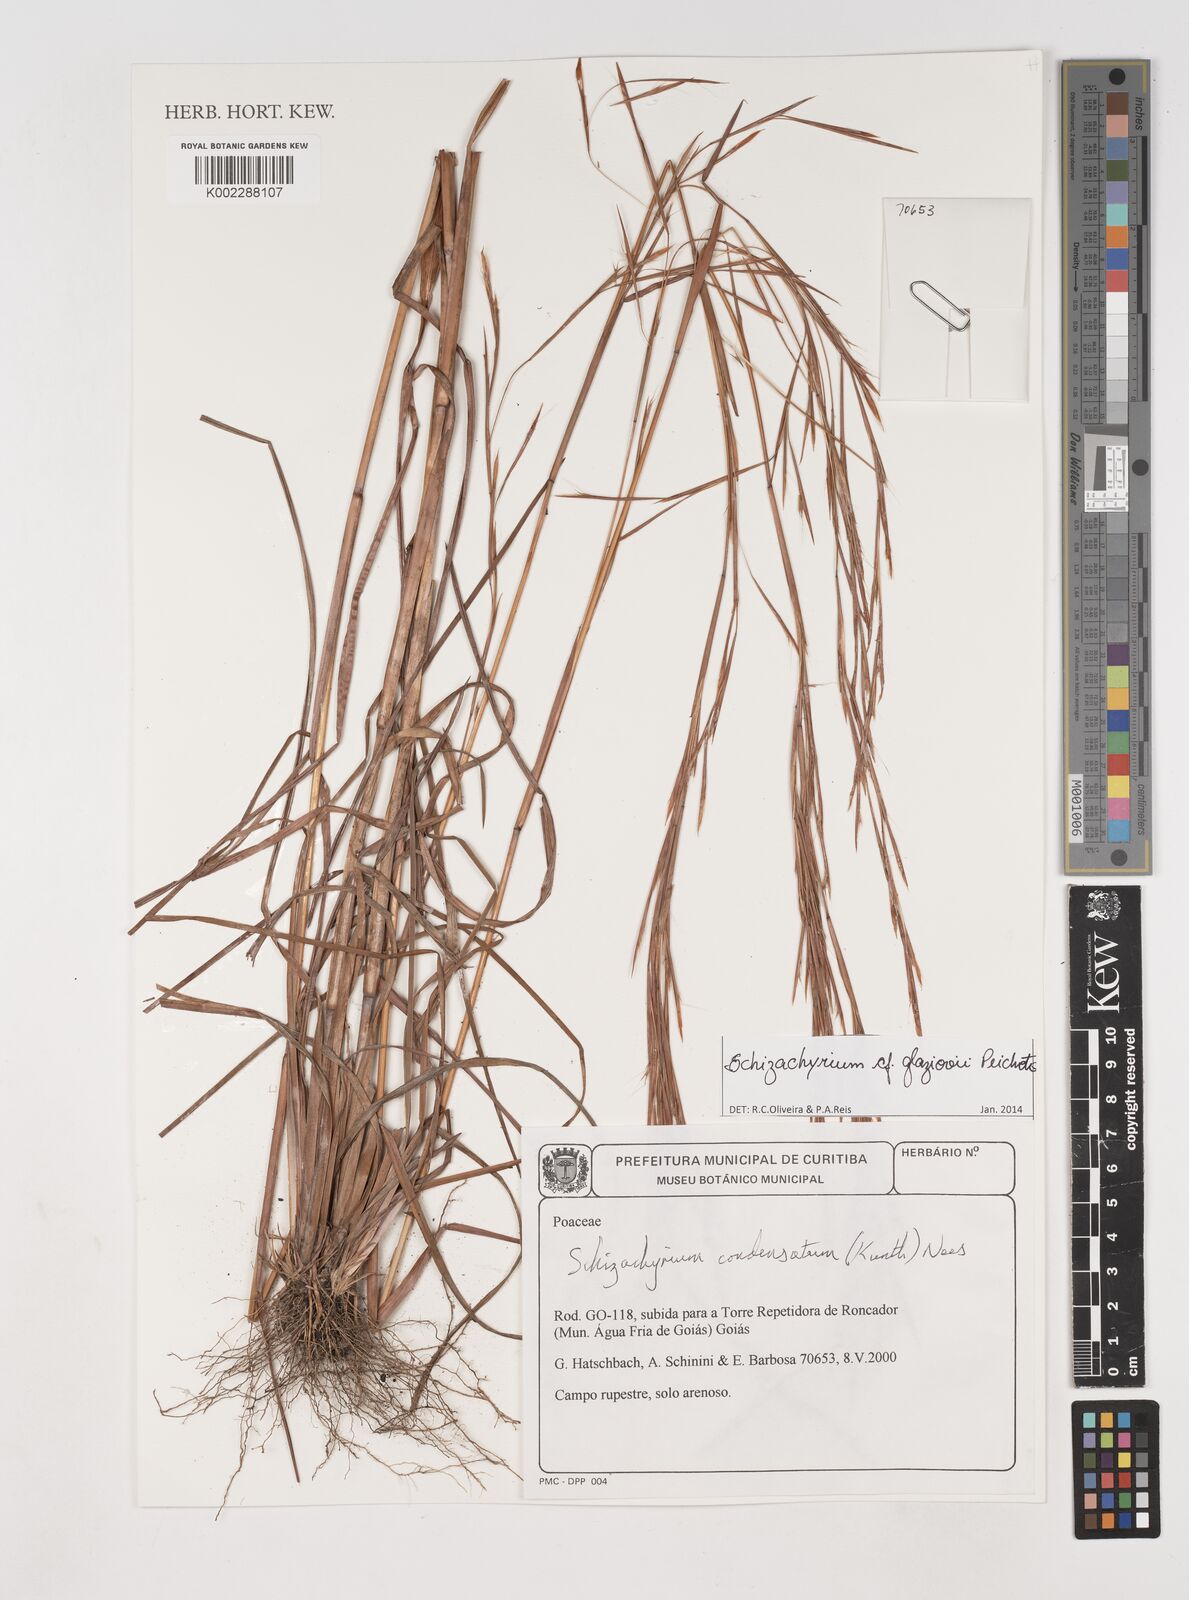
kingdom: Plantae
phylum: Tracheophyta
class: Liliopsida
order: Poales
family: Poaceae
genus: Schizachyrium
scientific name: Schizachyrium condensatum
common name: Bush beardgrass
